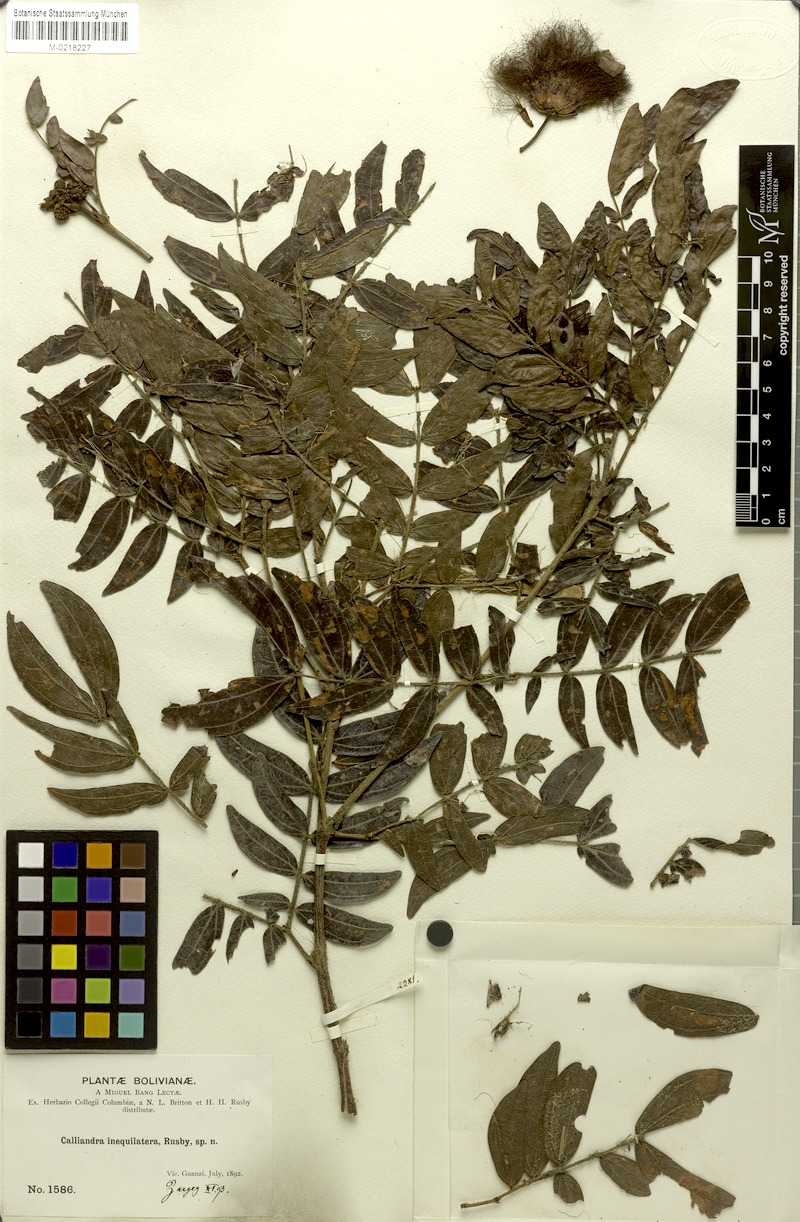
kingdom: Plantae
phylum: Tracheophyta
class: Magnoliopsida
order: Fabales
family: Fabaceae
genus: Calliandra
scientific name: Calliandra haematocephala
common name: Blood red tassel flower
